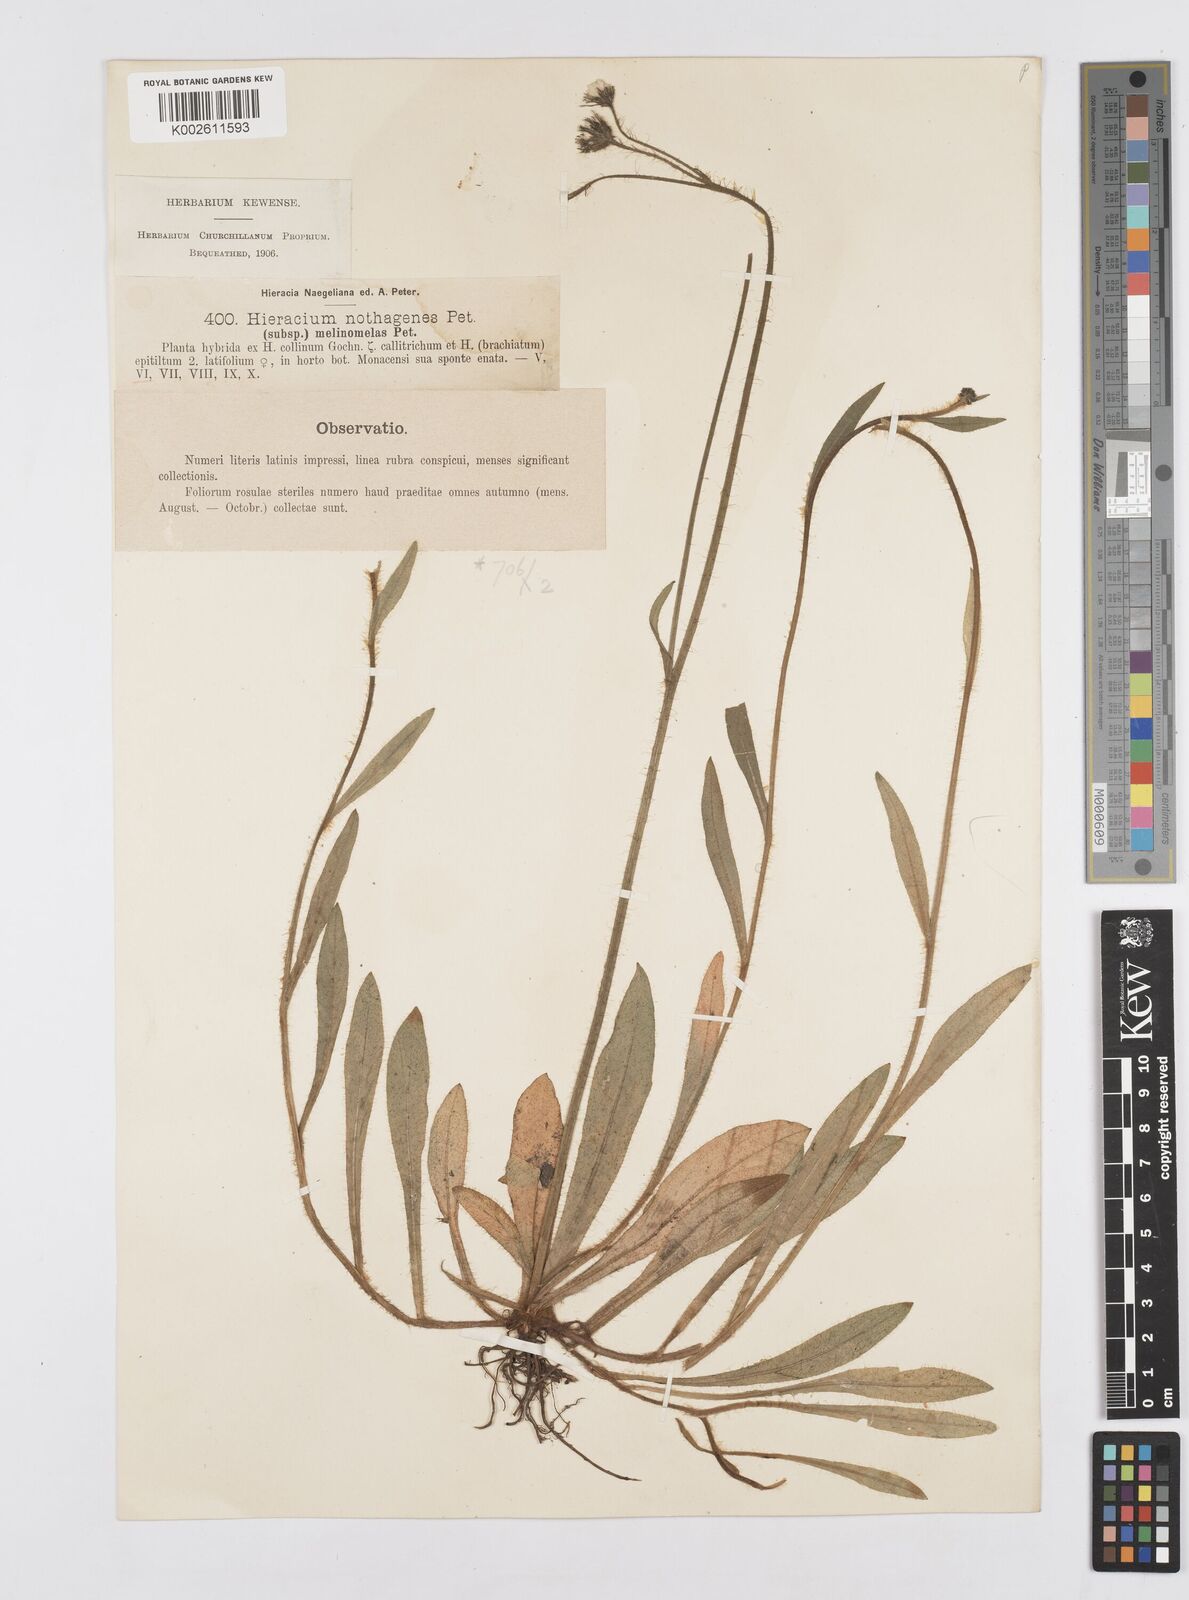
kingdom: Plantae
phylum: Tracheophyta
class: Magnoliopsida
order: Asterales
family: Asteraceae
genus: Pilosella
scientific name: Pilosella acutifolia
